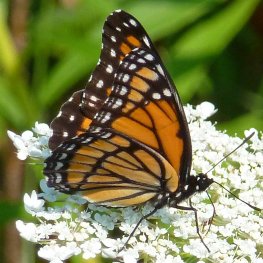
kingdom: Animalia
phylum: Arthropoda
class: Insecta
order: Lepidoptera
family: Nymphalidae
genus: Limenitis
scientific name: Limenitis archippus
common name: Viceroy
